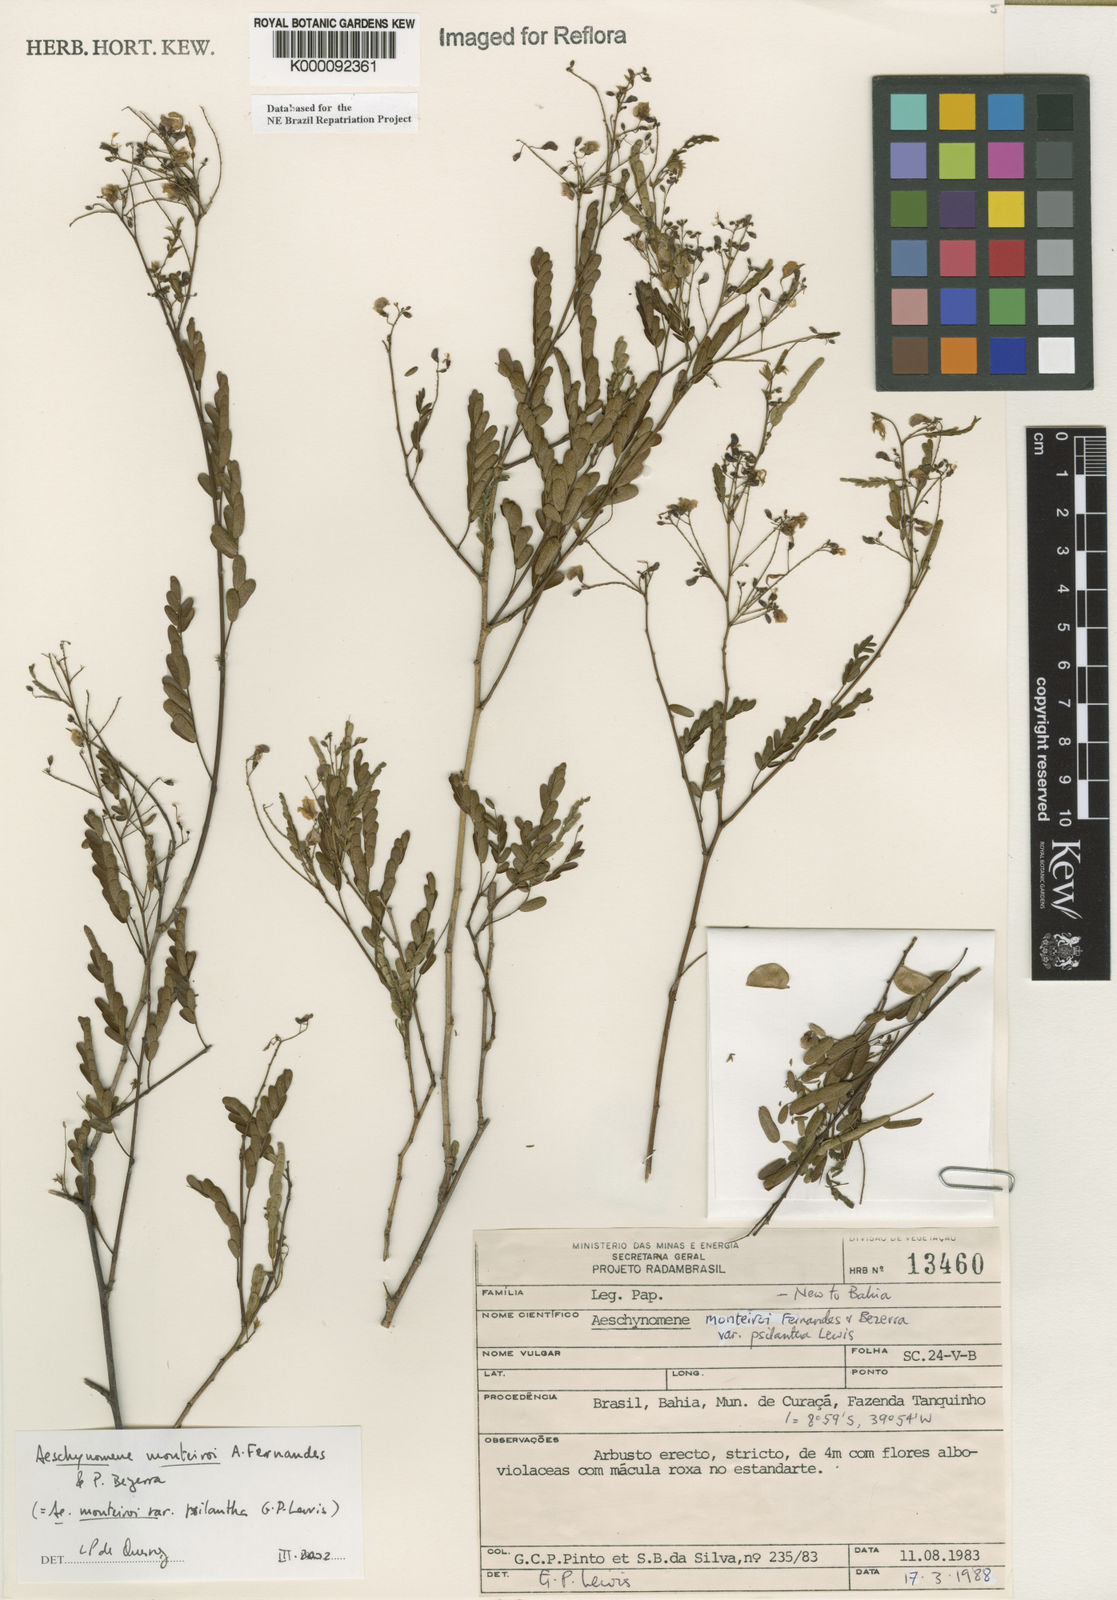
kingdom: Plantae
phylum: Tracheophyta
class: Magnoliopsida
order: Fabales
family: Fabaceae
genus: Ctenodon
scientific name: Ctenodon monteiroi
